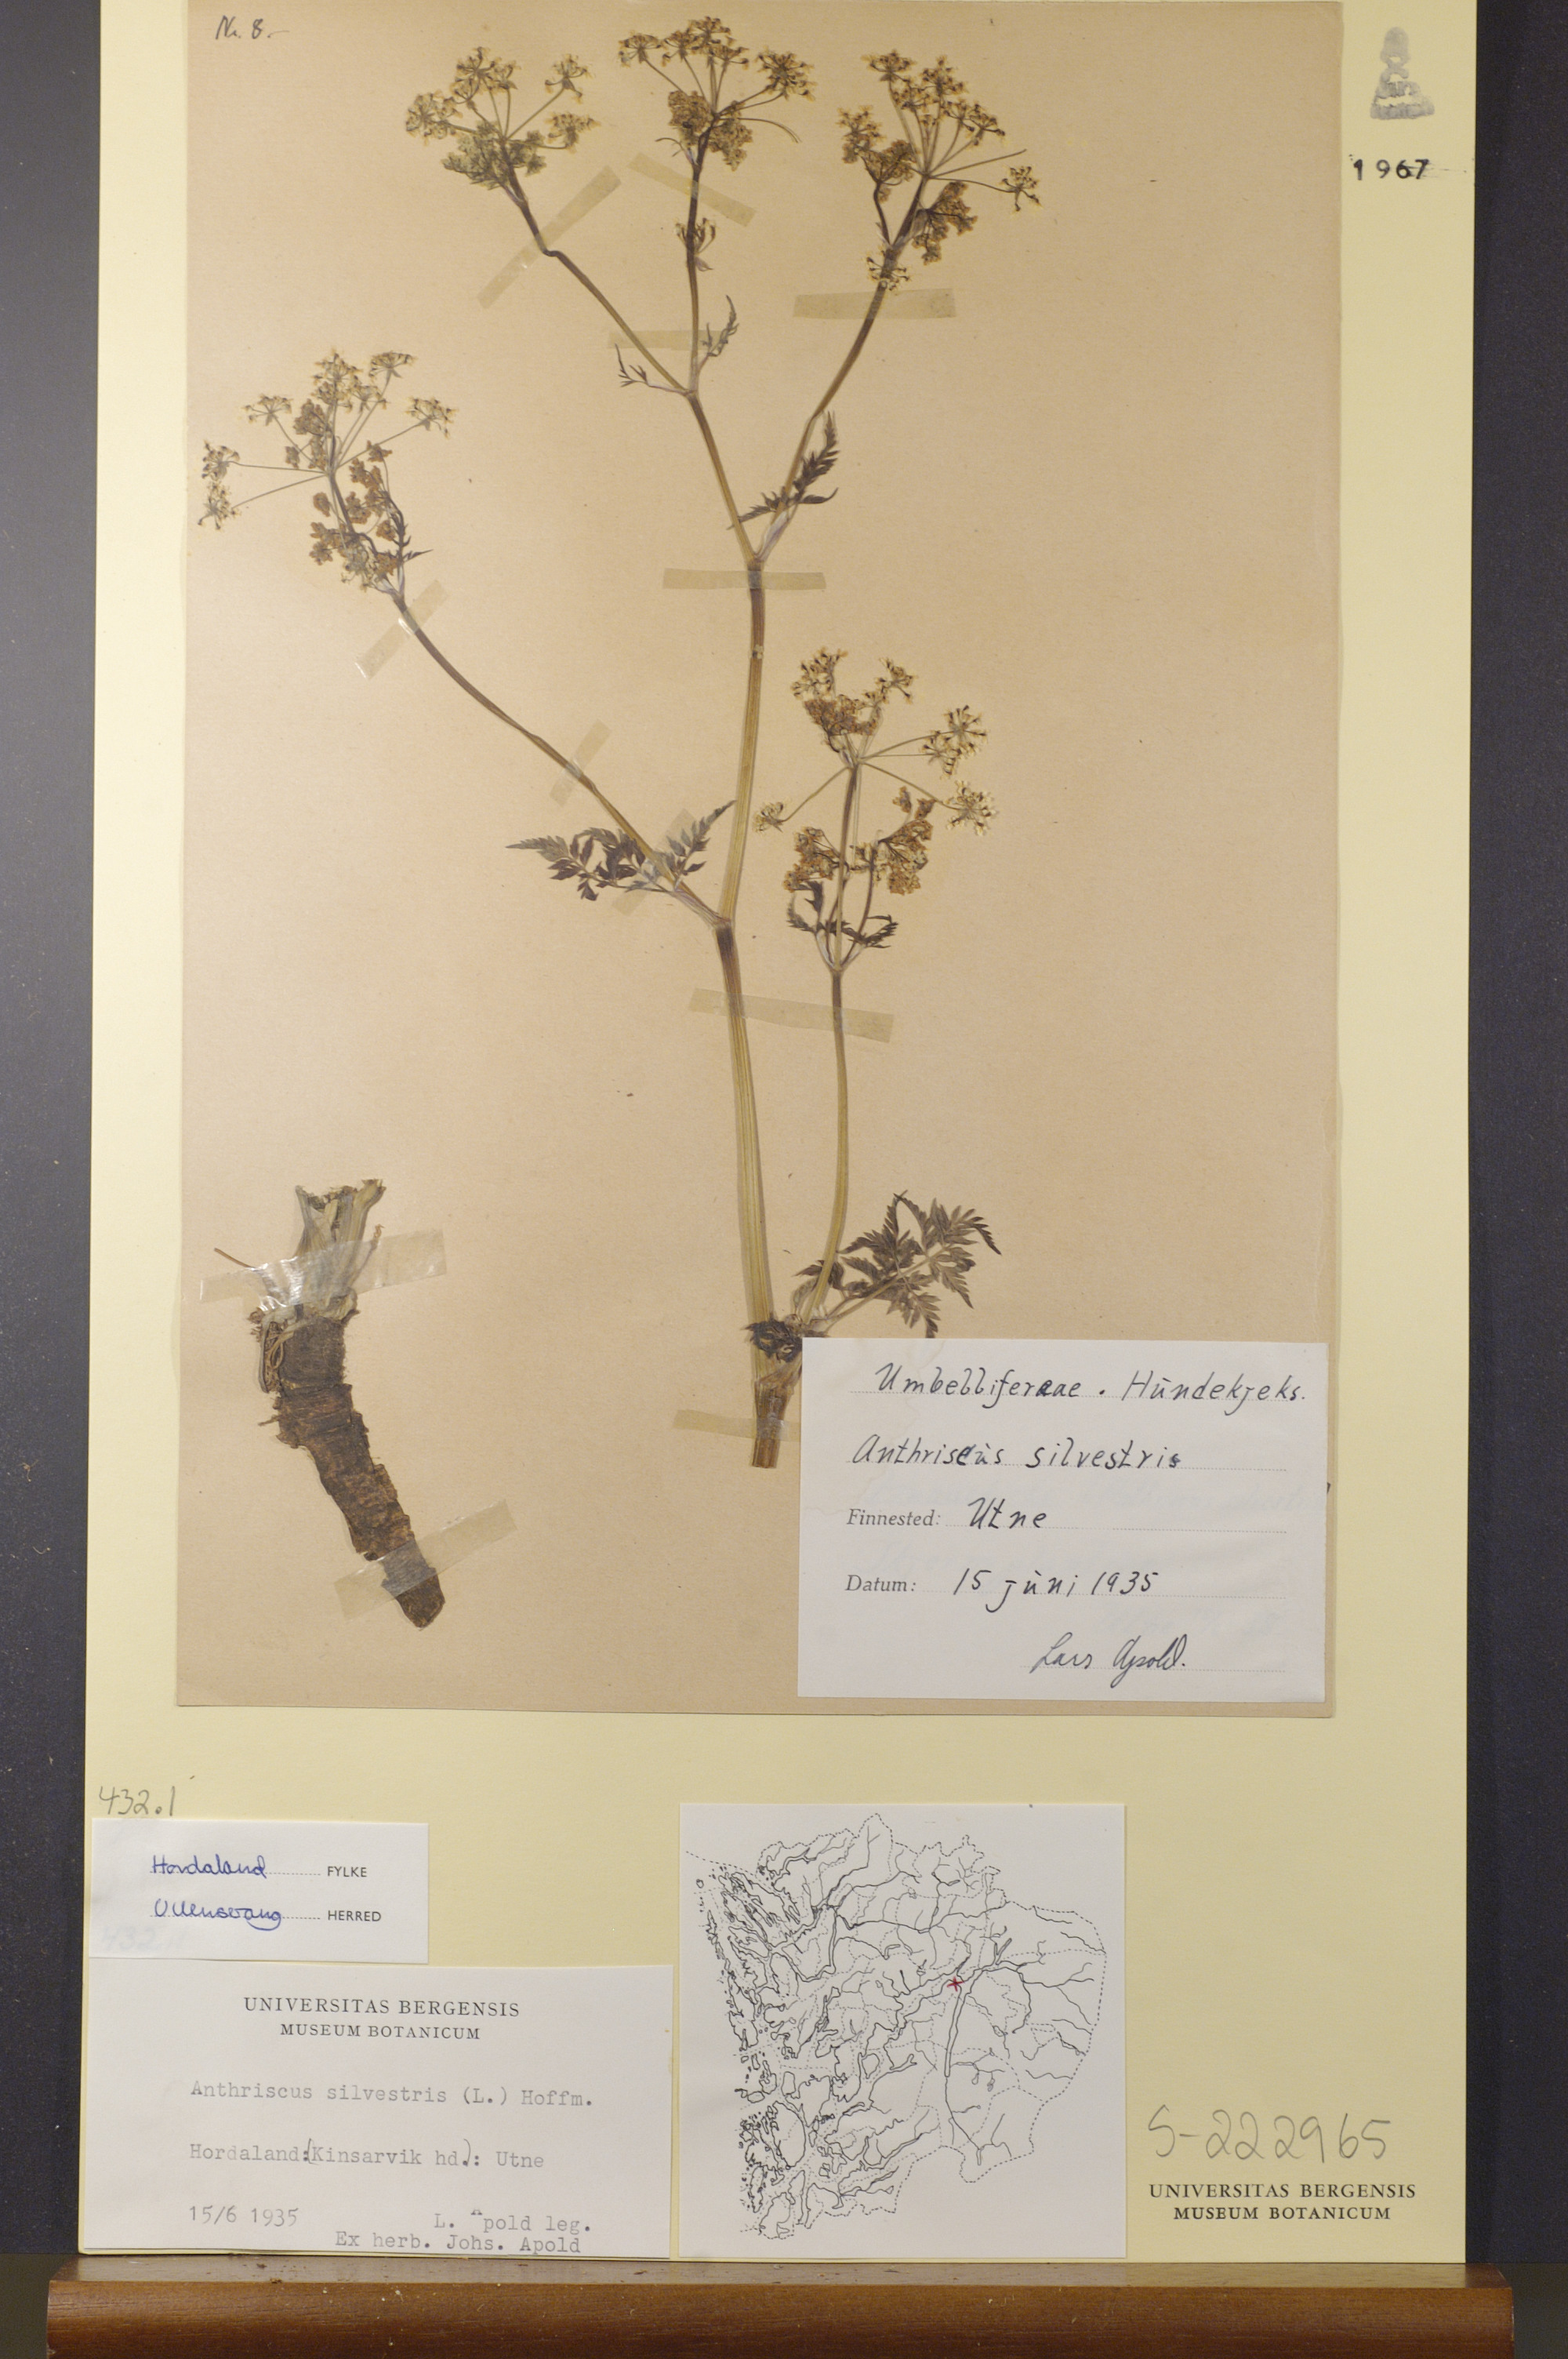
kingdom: Plantae
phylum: Tracheophyta
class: Magnoliopsida
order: Apiales
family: Apiaceae
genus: Anthriscus
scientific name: Anthriscus sylvestris
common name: Cow parsley
